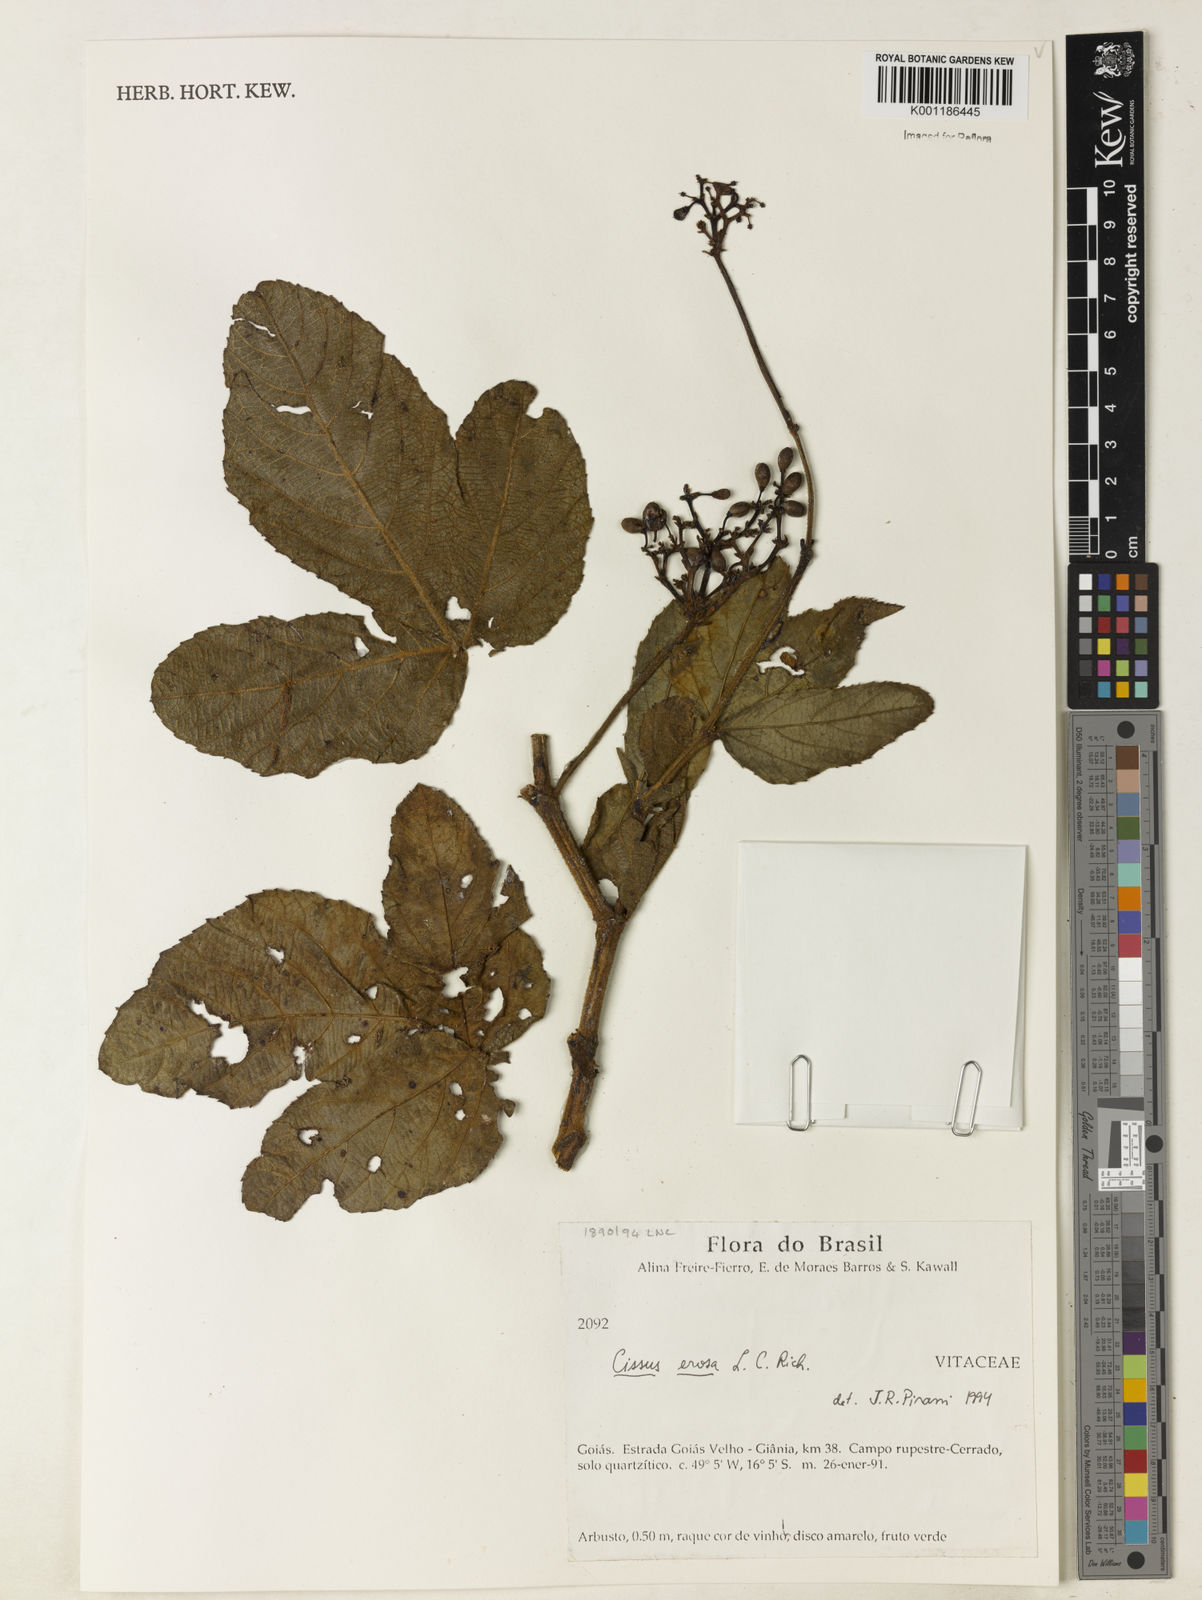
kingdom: Plantae
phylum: Tracheophyta
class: Magnoliopsida
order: Vitales
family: Vitaceae
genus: Cissus
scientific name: Cissus erosa
